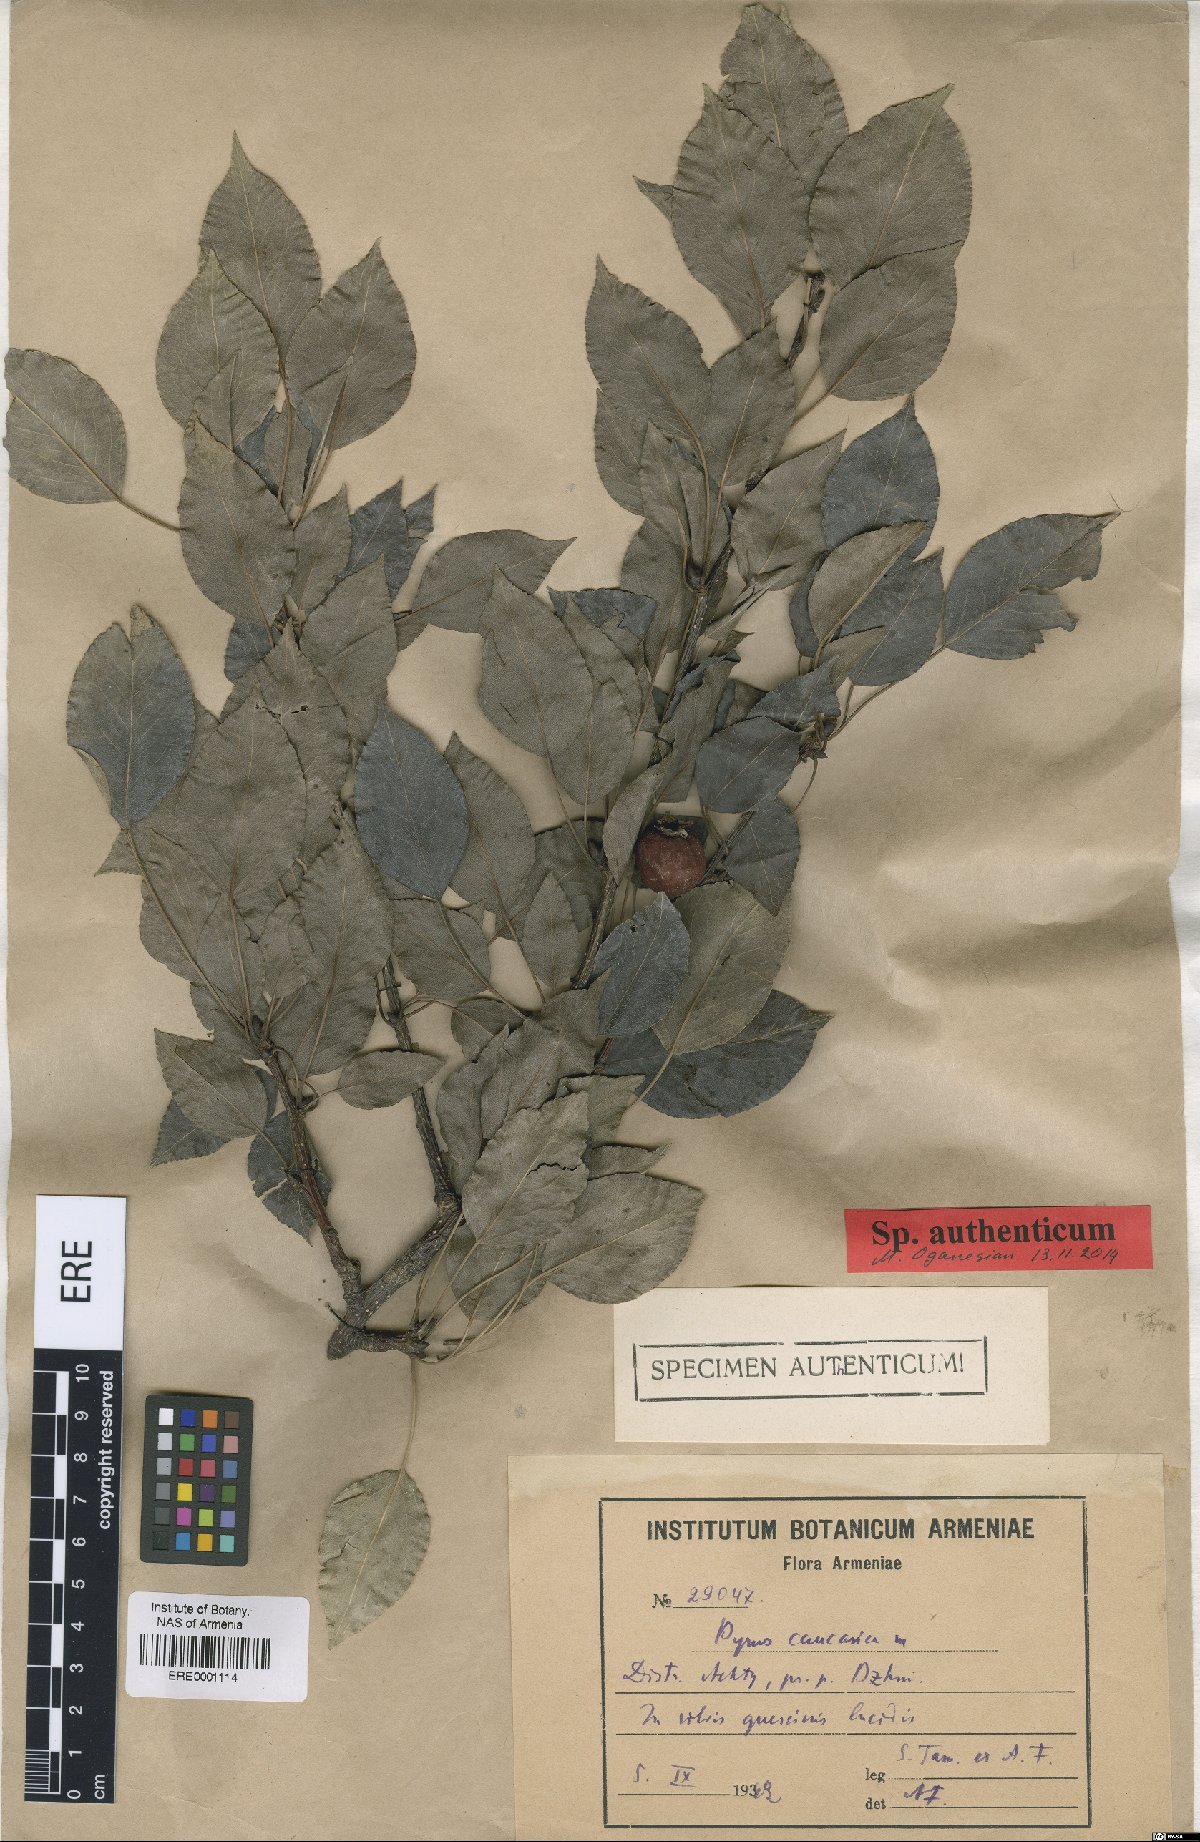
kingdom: Plantae
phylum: Tracheophyta
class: Magnoliopsida
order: Rosales
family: Rosaceae
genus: Pyrus
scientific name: Pyrus communis
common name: Pear
